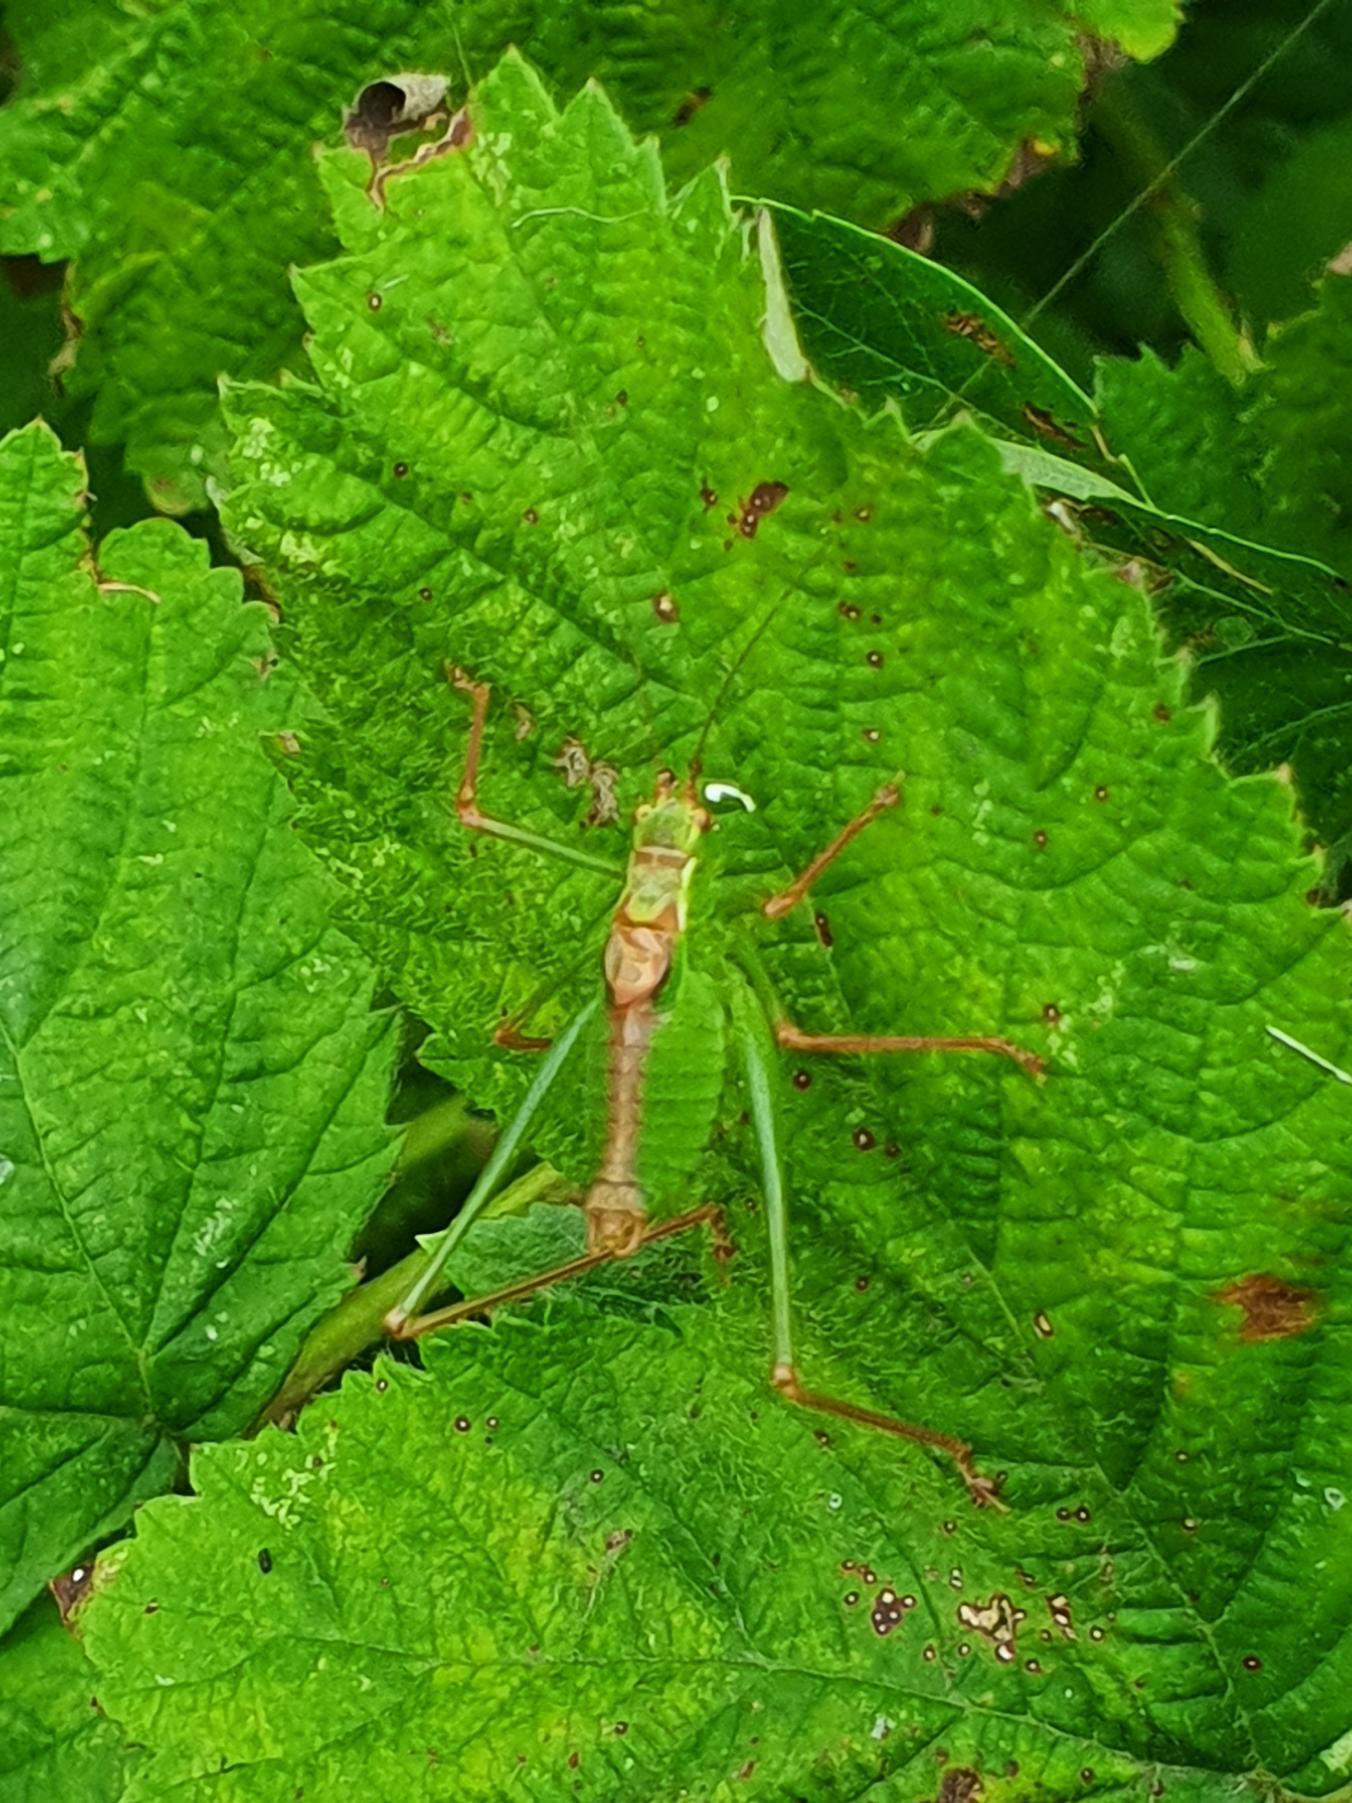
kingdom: Animalia
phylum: Arthropoda
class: Insecta
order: Orthoptera
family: Tettigoniidae
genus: Leptophyes
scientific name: Leptophyes punctatissima
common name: Krumknivgræshoppe
